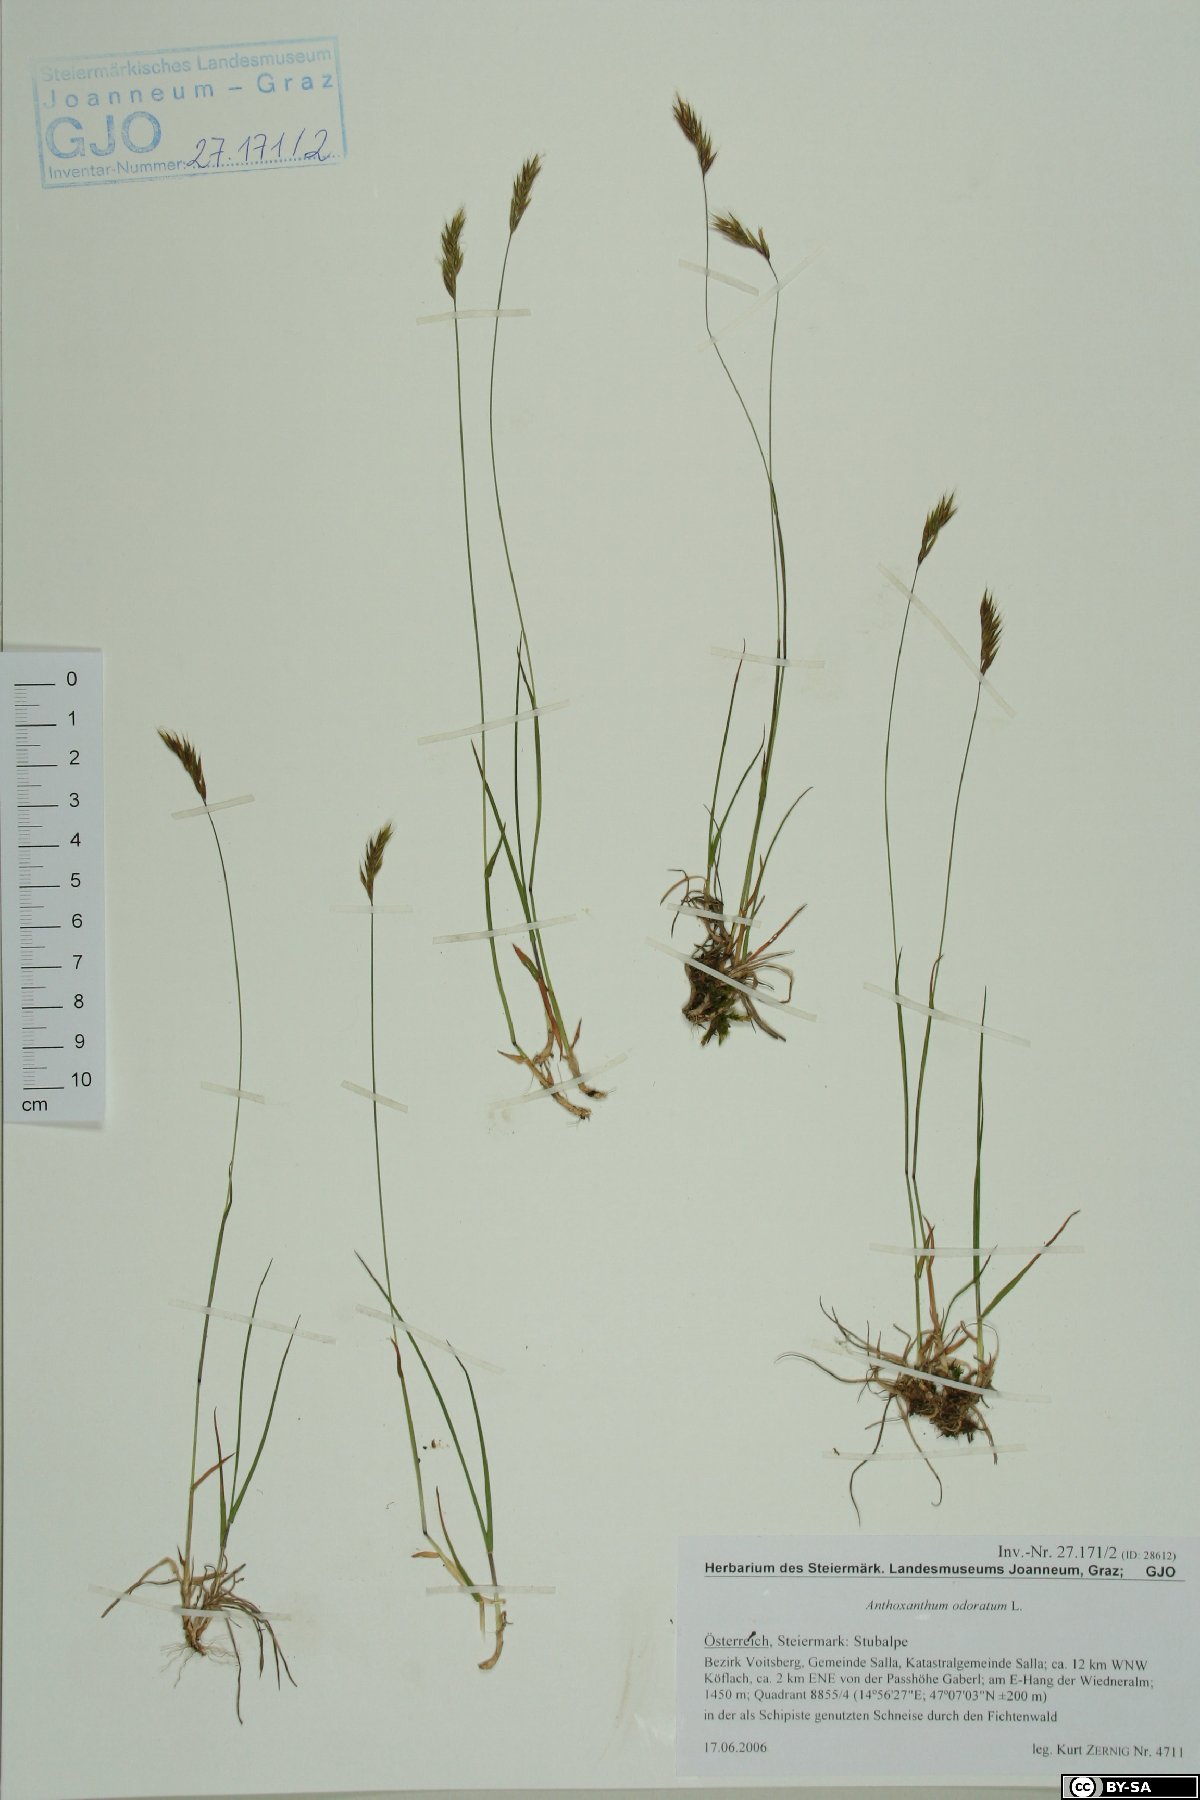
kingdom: Plantae
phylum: Tracheophyta
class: Liliopsida
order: Poales
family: Poaceae
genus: Anthoxanthum
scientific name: Anthoxanthum odoratum
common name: Sweet vernalgrass
